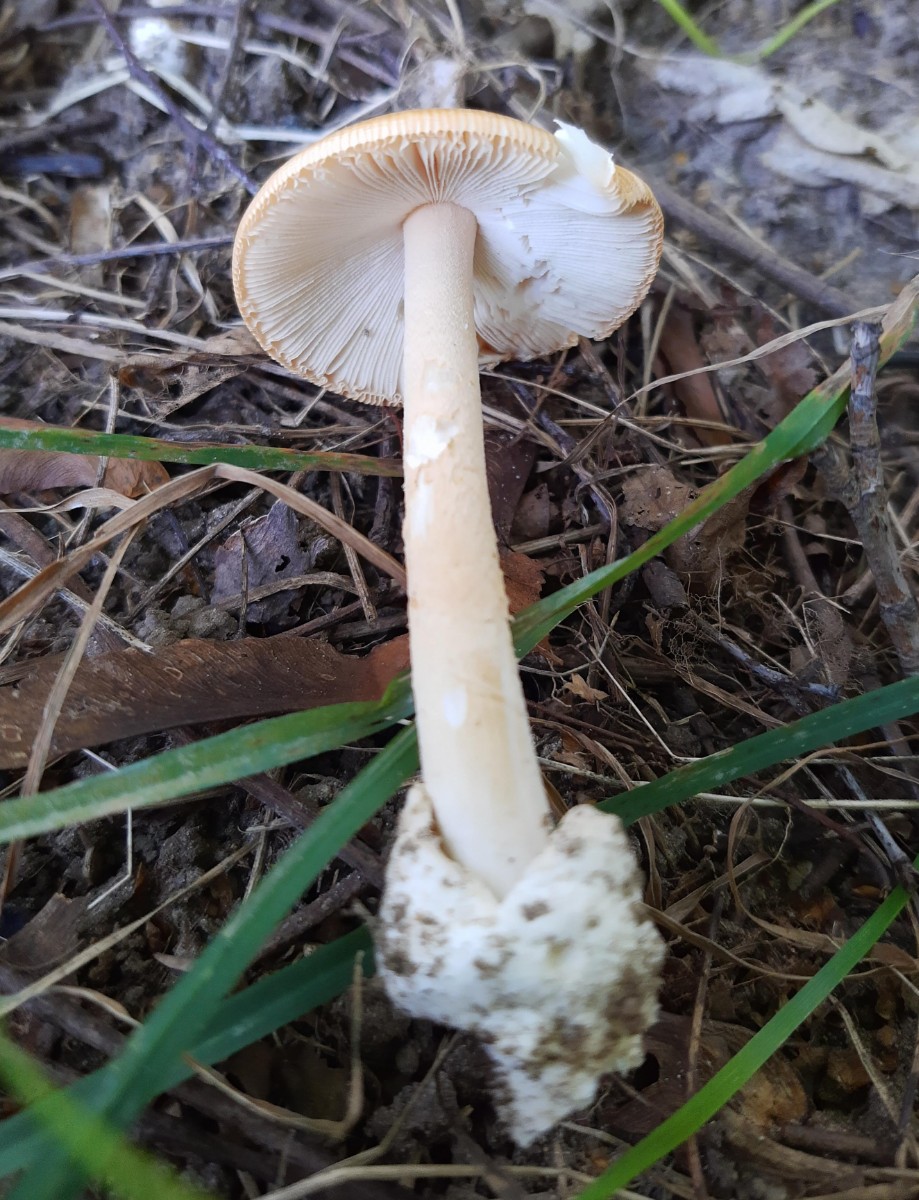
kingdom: Fungi
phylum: Basidiomycota
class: Agaricomycetes
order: Agaricales
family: Amanitaceae
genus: Amanita
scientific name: Amanita crocea
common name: gylden kam-fluesvamp
